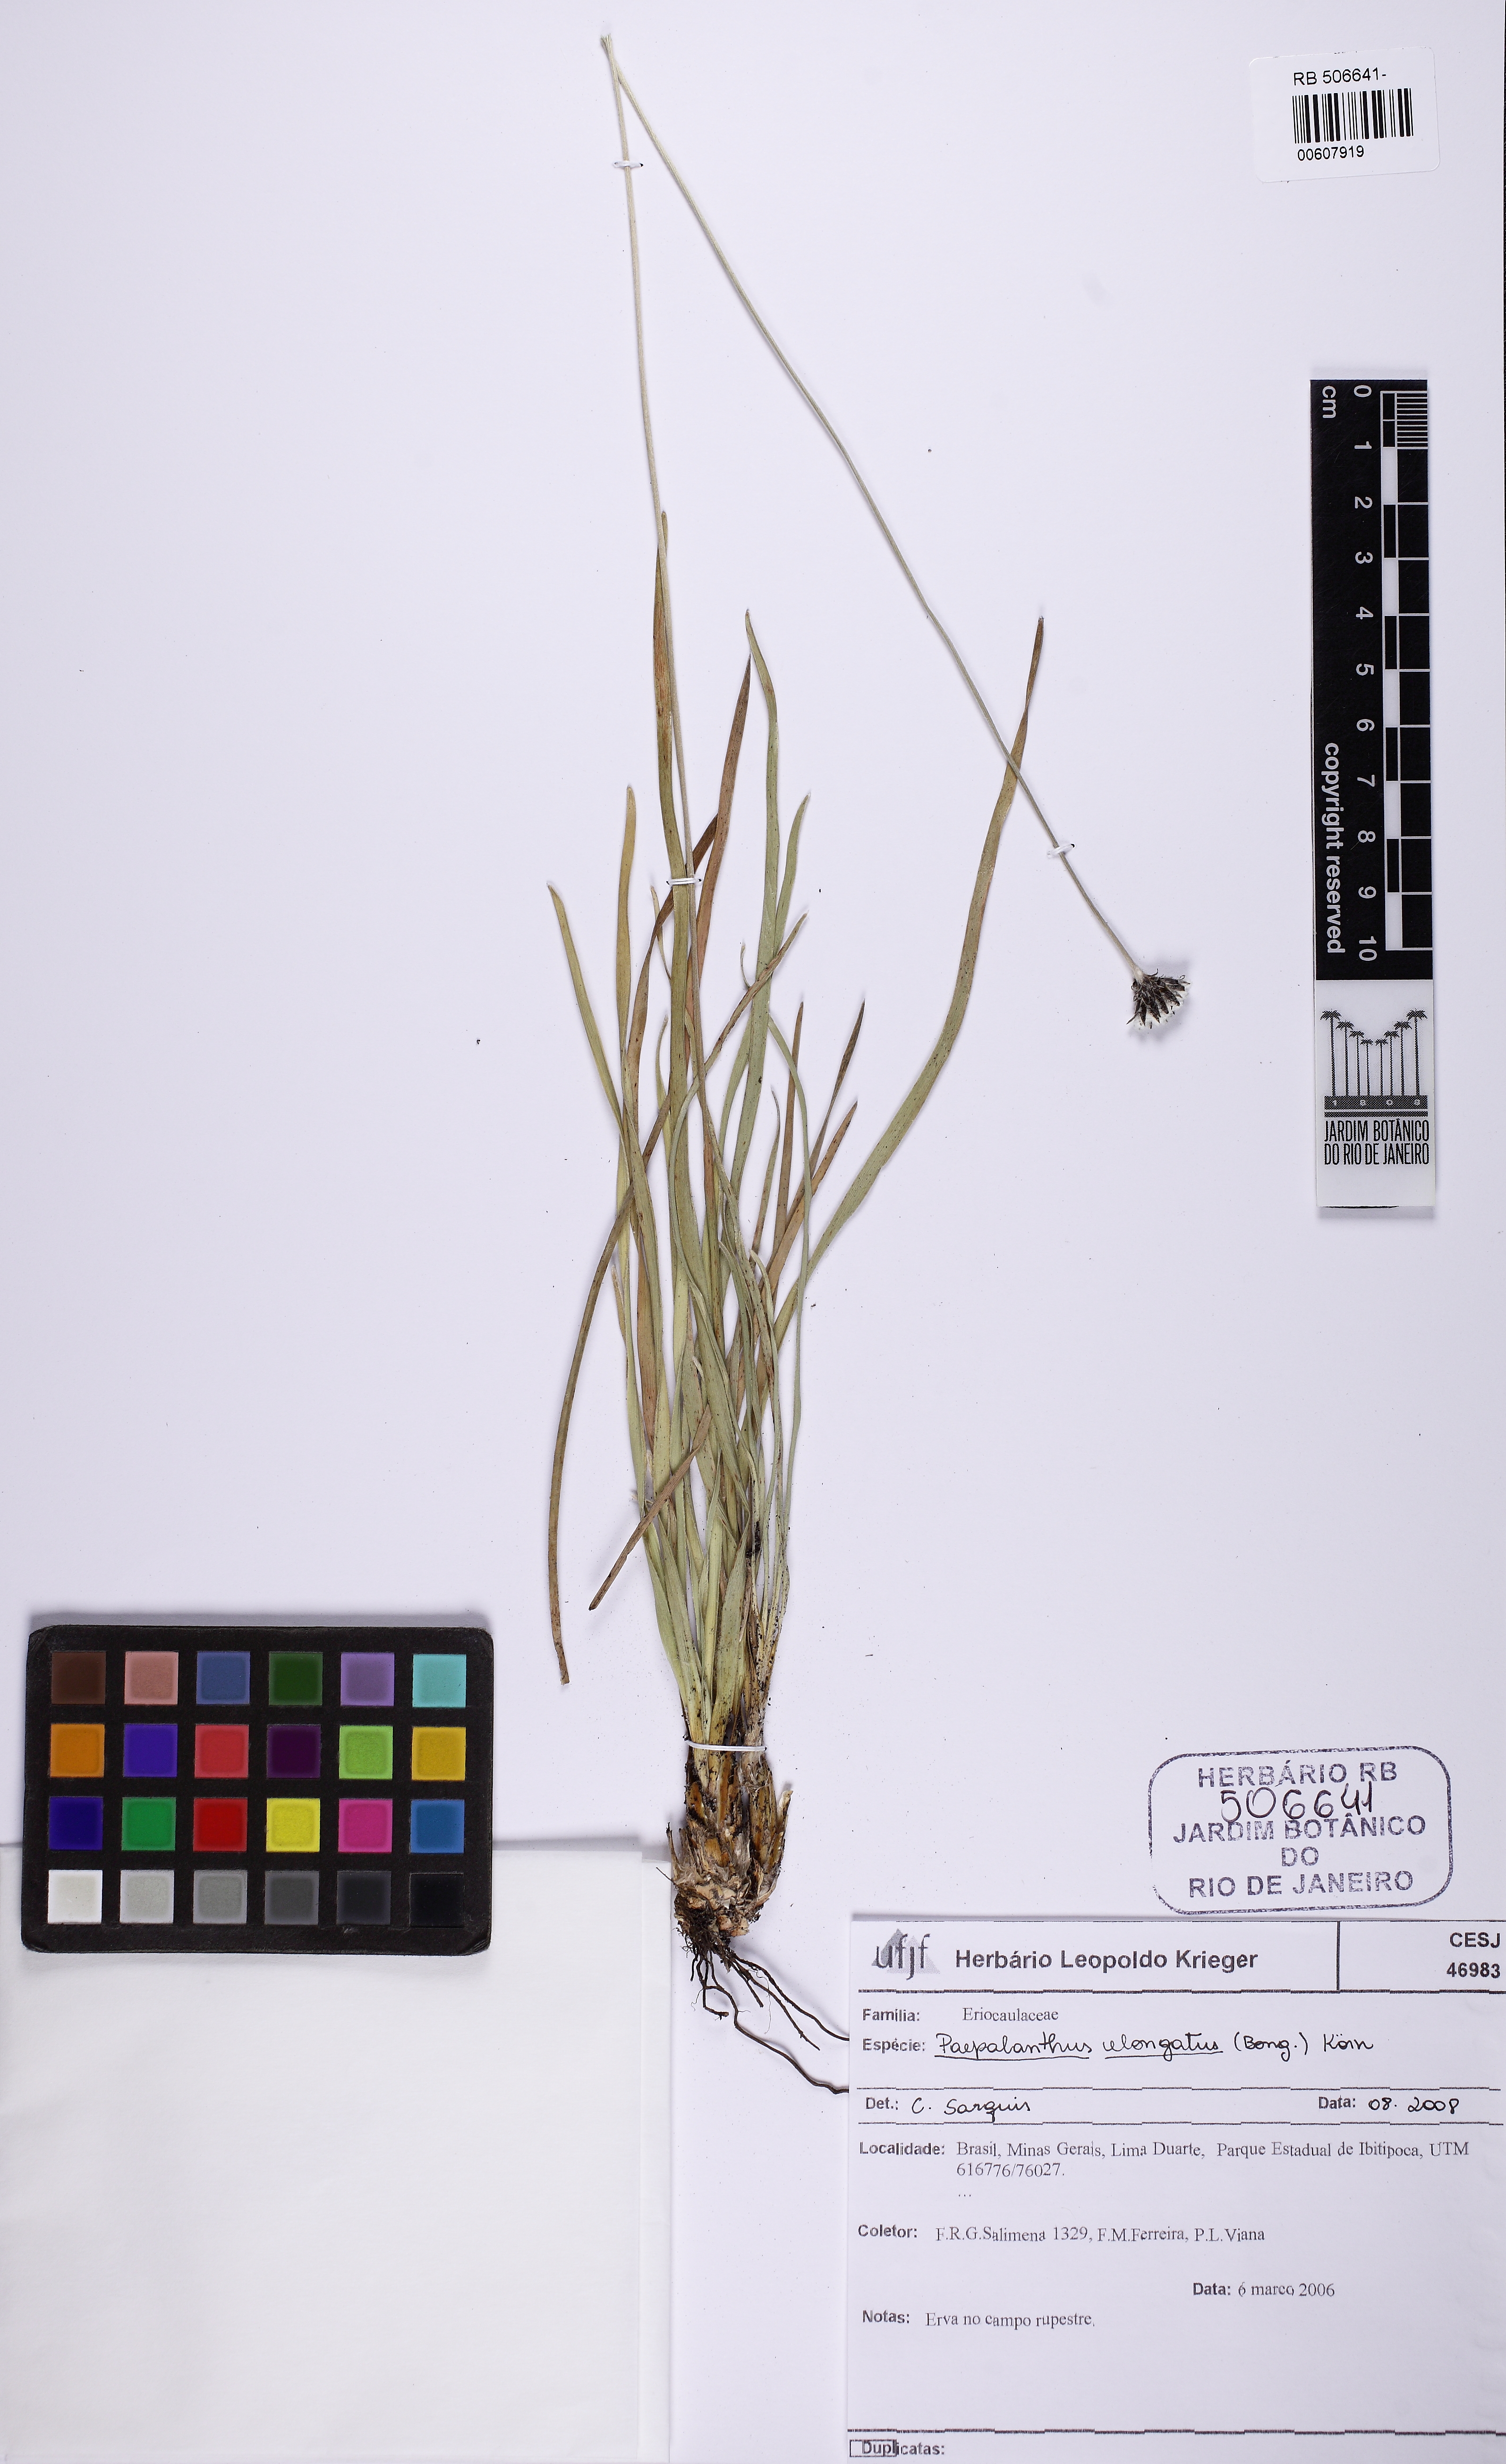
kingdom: Plantae
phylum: Tracheophyta
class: Liliopsida
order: Poales
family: Eriocaulaceae
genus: Paepalanthus
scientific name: Paepalanthus elongatus
